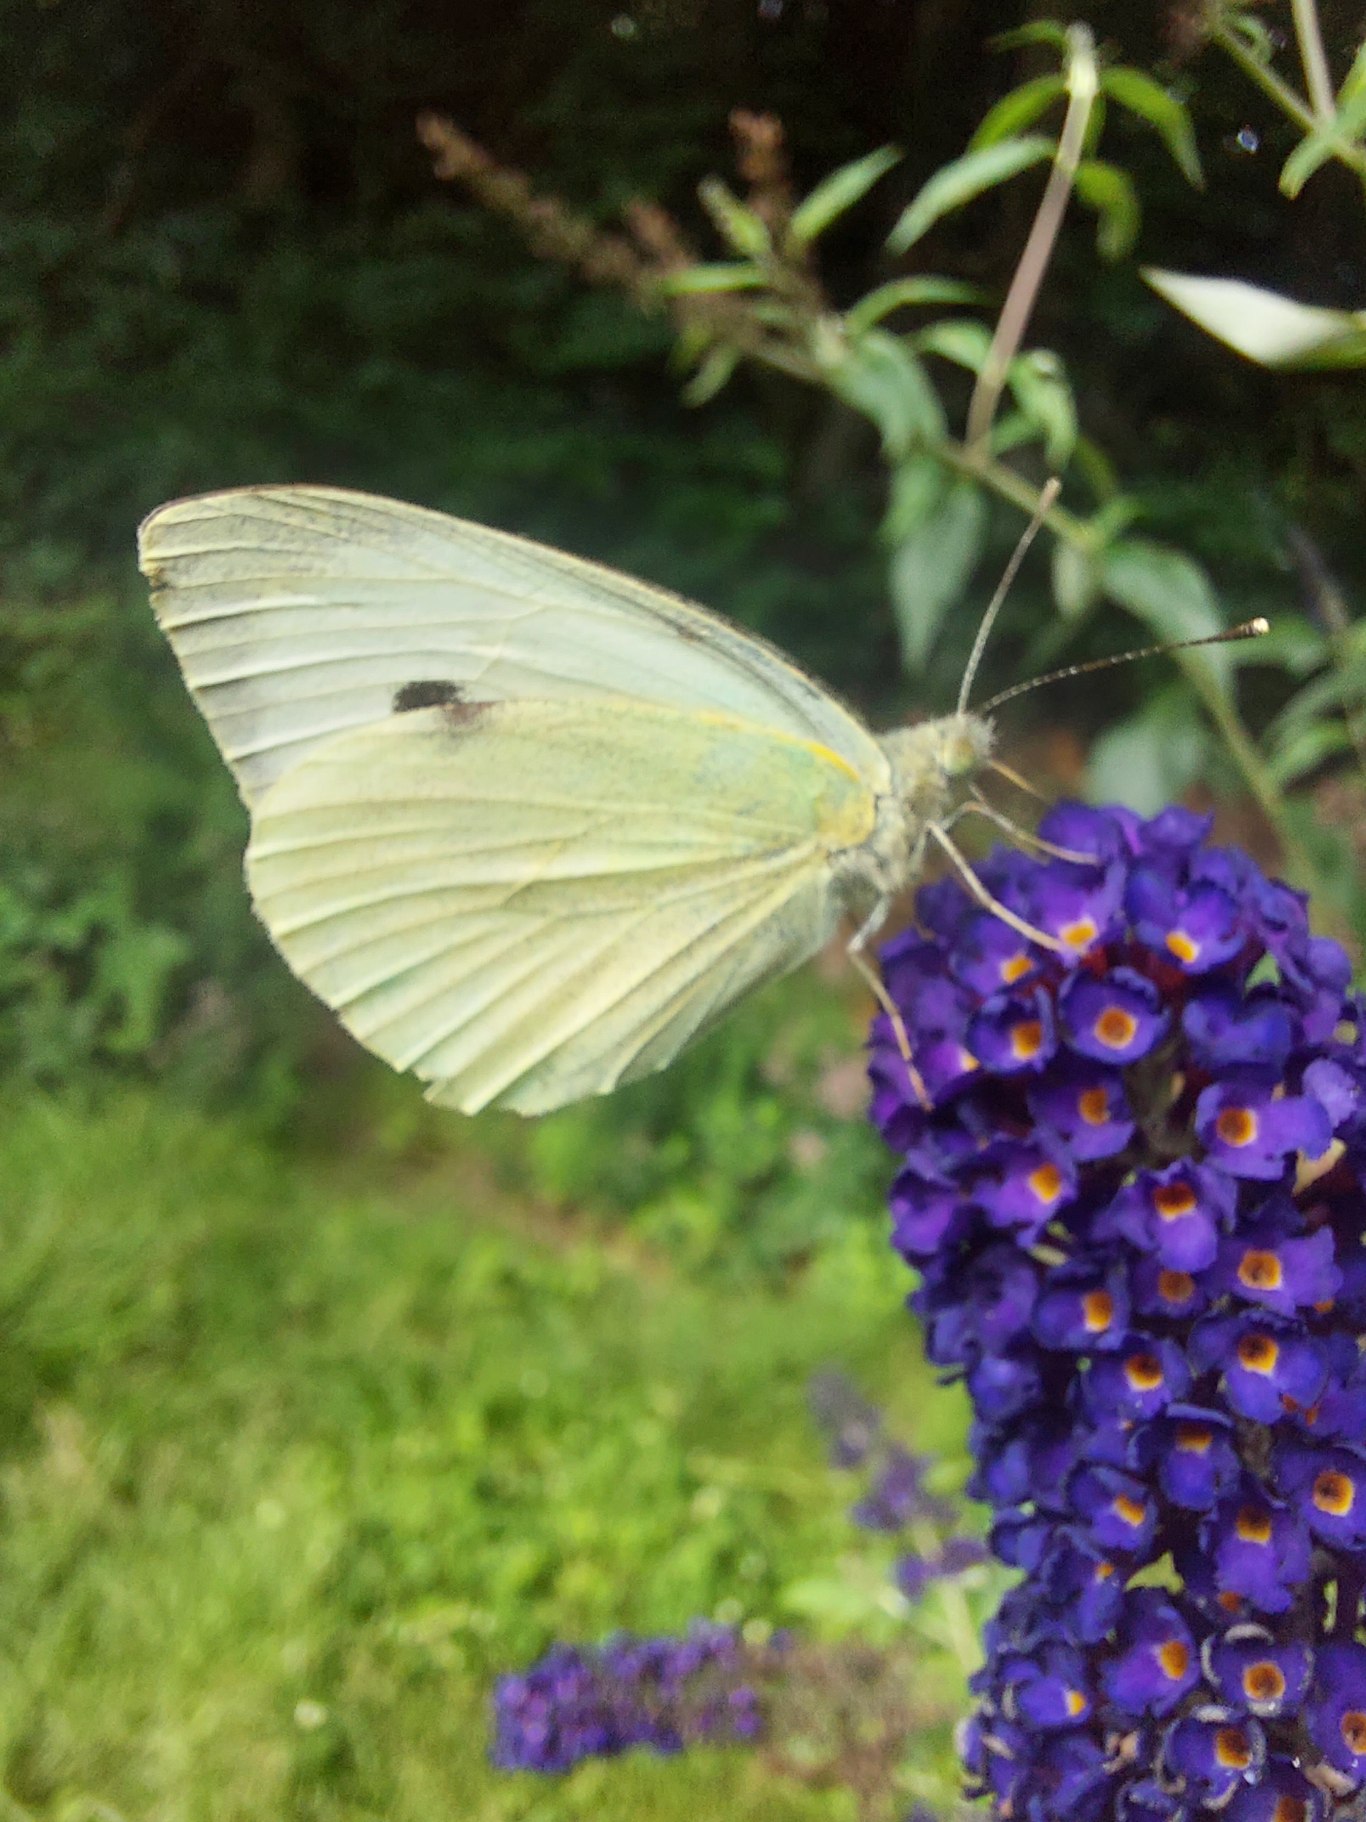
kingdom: Animalia
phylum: Arthropoda
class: Insecta
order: Lepidoptera
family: Pieridae
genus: Pieris
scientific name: Pieris brassicae
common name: Stor kålsommerfugl
